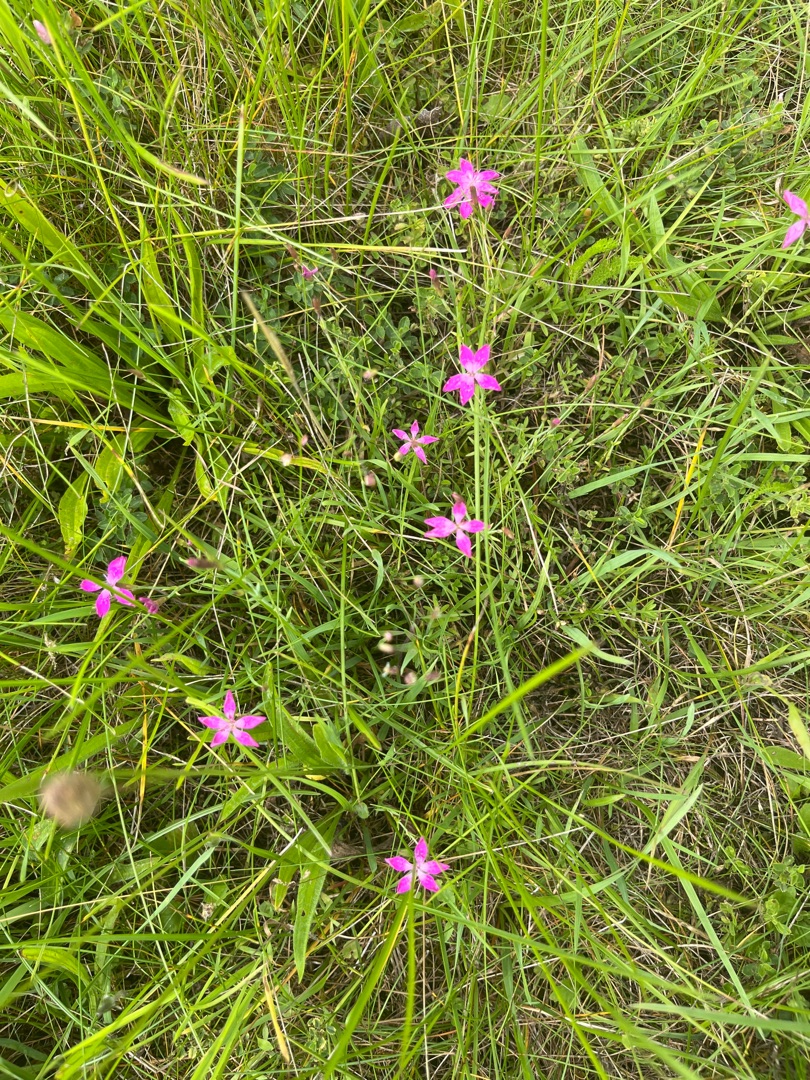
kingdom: Plantae
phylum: Tracheophyta
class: Magnoliopsida
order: Caryophyllales
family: Caryophyllaceae
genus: Dianthus
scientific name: Dianthus deltoides
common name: Bakke-nellike
